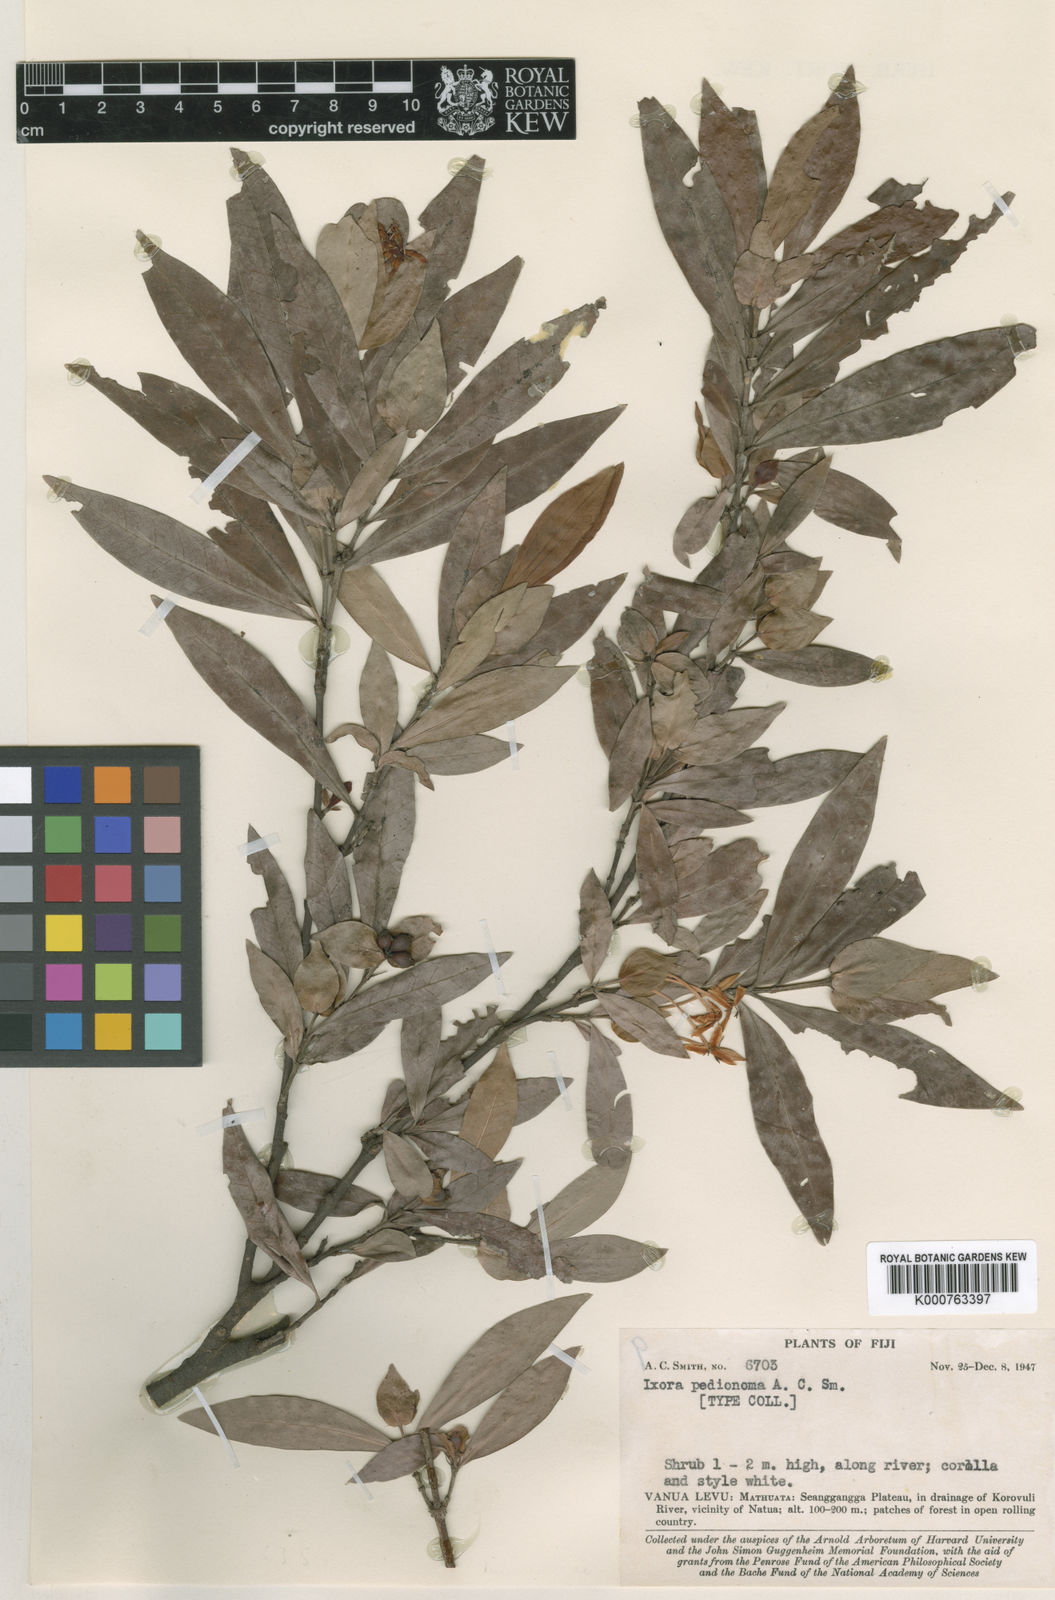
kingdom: Plantae
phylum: Tracheophyta
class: Magnoliopsida
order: Gentianales
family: Rubiaceae
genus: Ixora
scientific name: Ixora pedionoma
